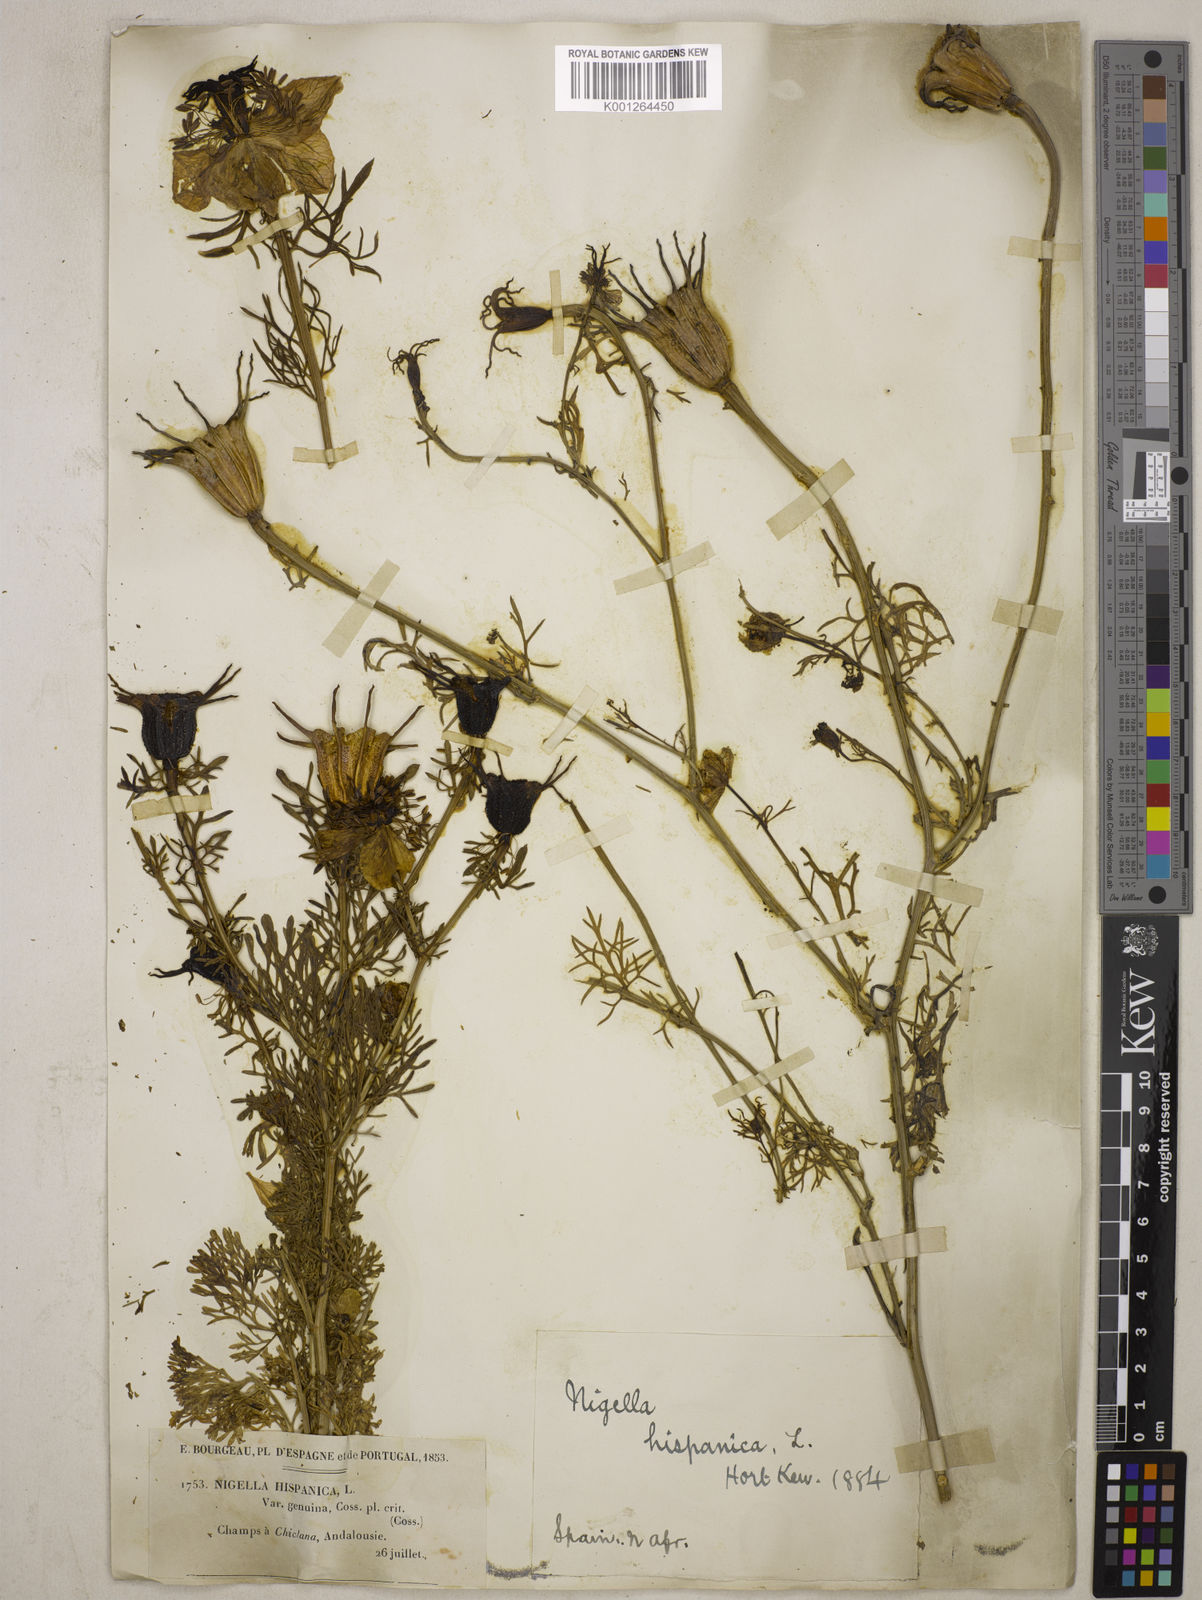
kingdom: Plantae
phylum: Tracheophyta
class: Magnoliopsida
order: Ranunculales
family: Ranunculaceae
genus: Nigella
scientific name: Nigella hispanica
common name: Fennel-flower
